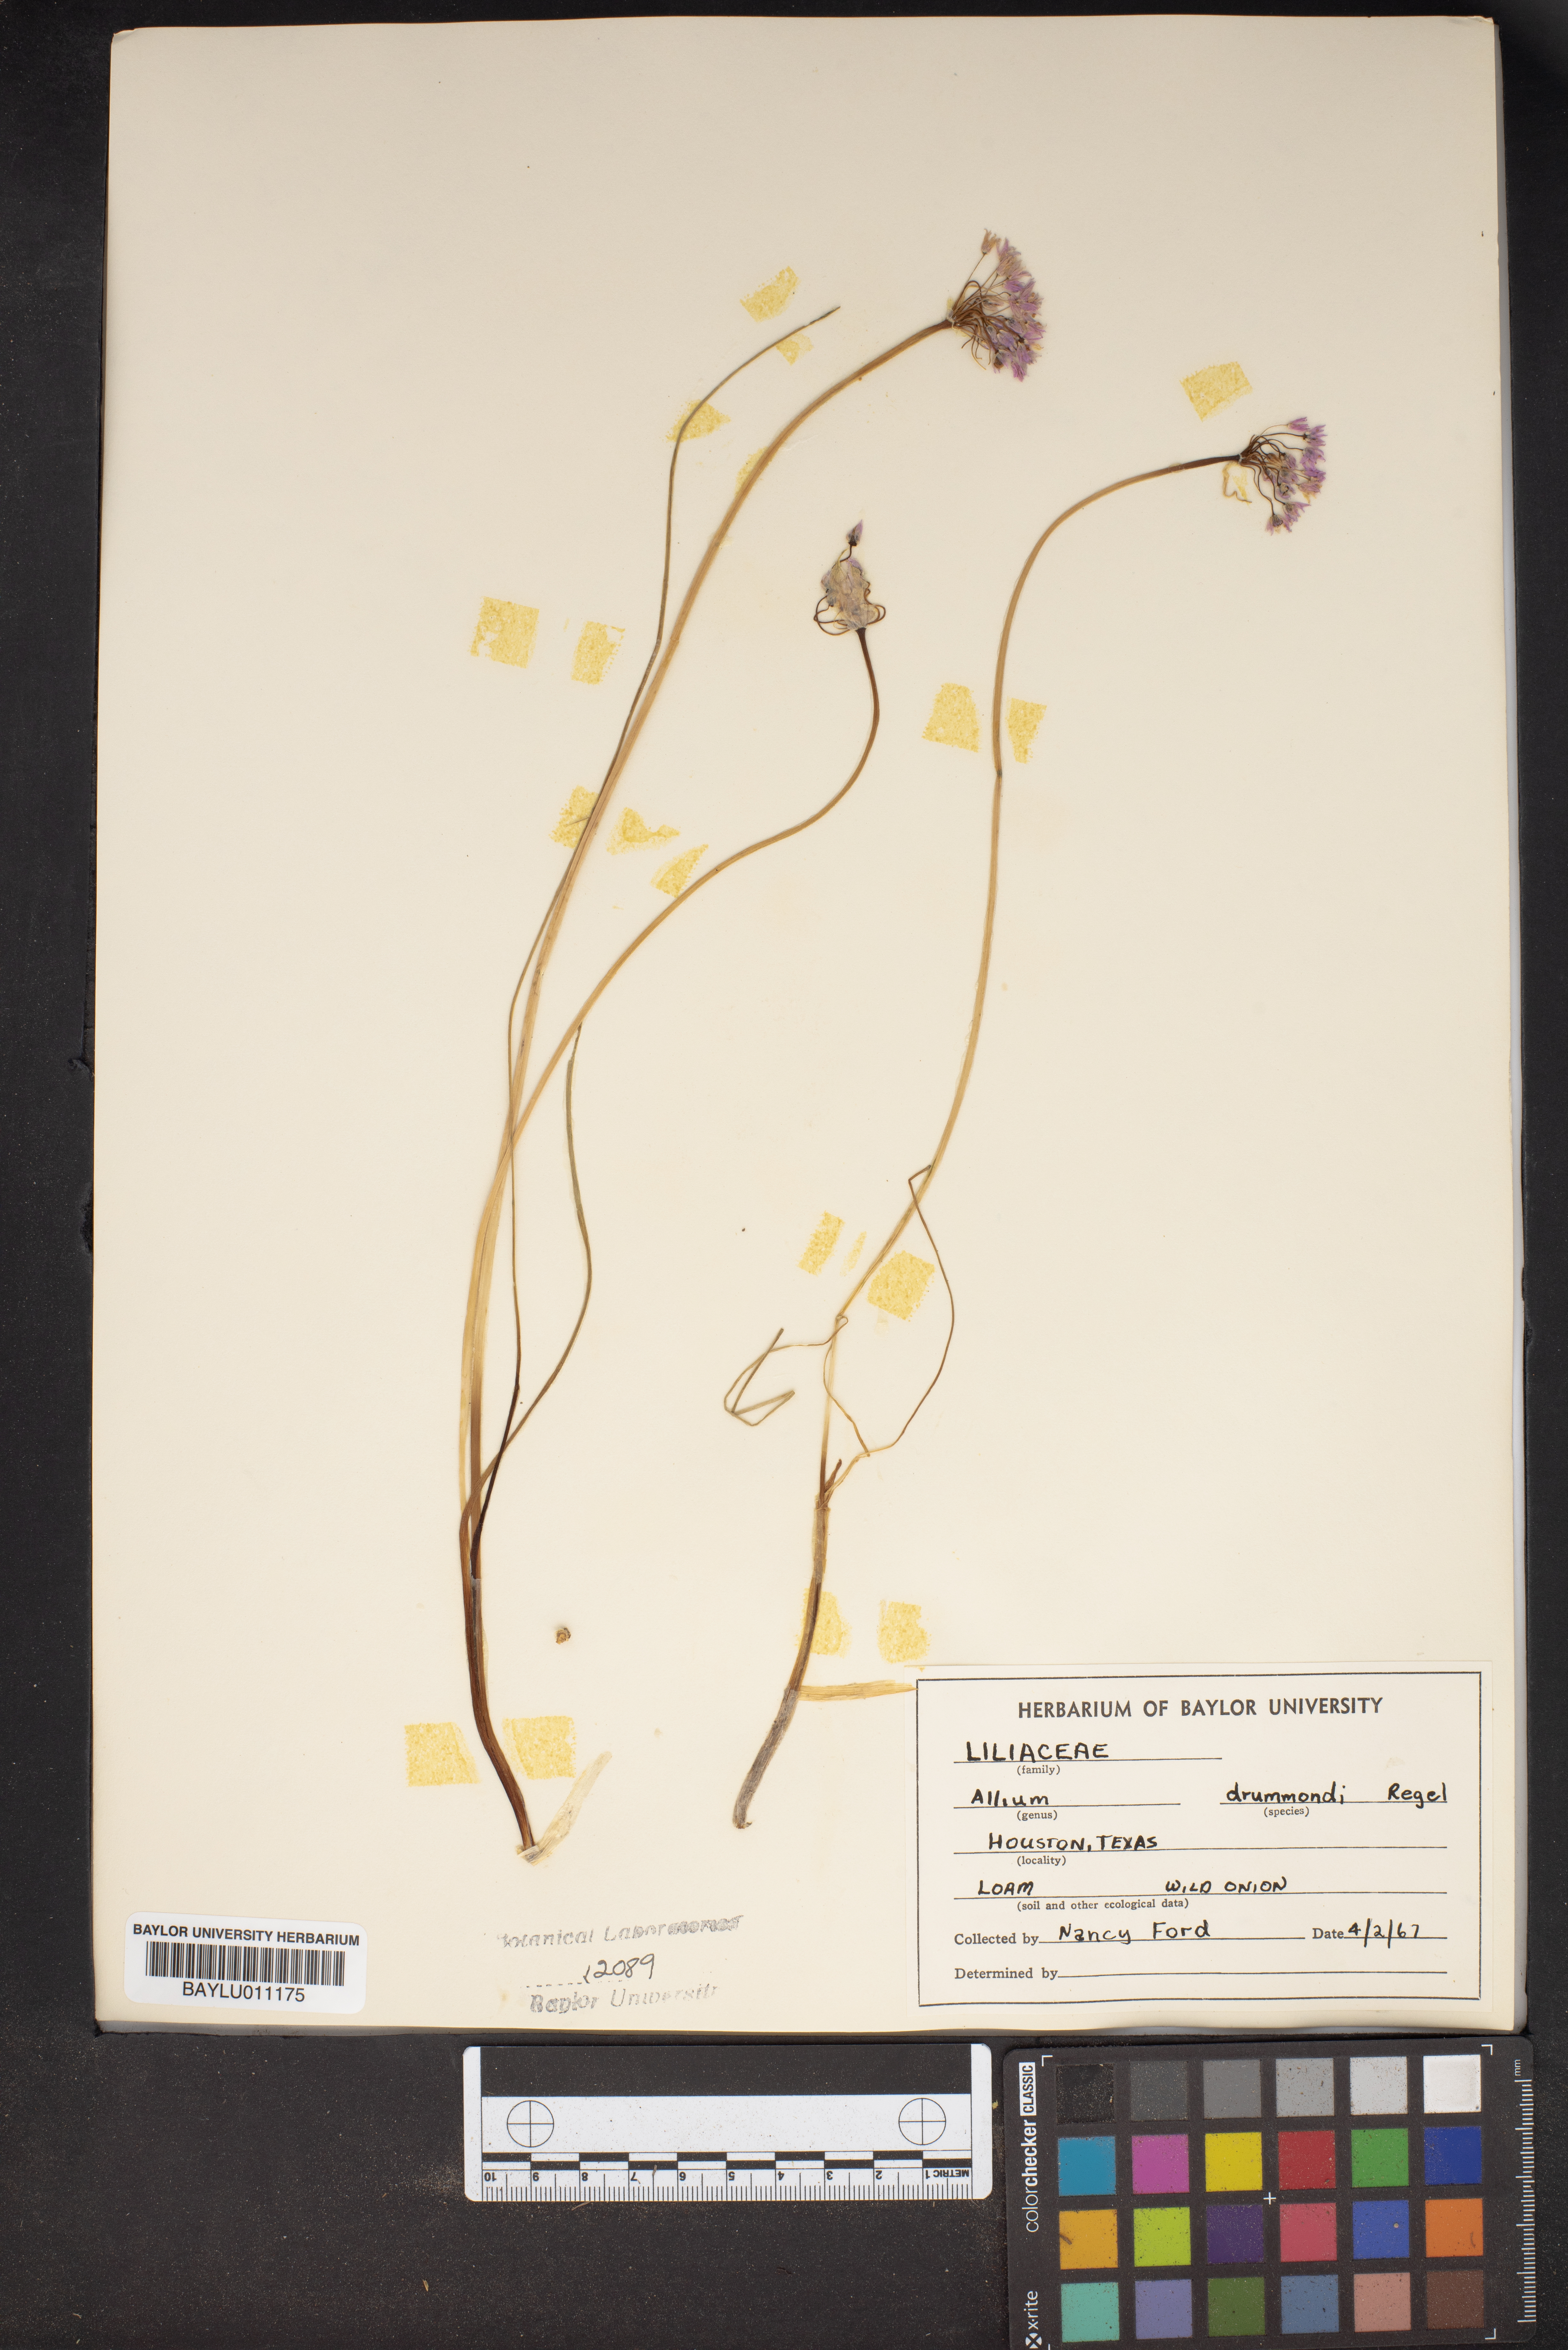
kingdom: Plantae
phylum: Tracheophyta
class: Liliopsida
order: Asparagales
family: Amaryllidaceae
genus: Allium
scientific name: Allium drummondii
